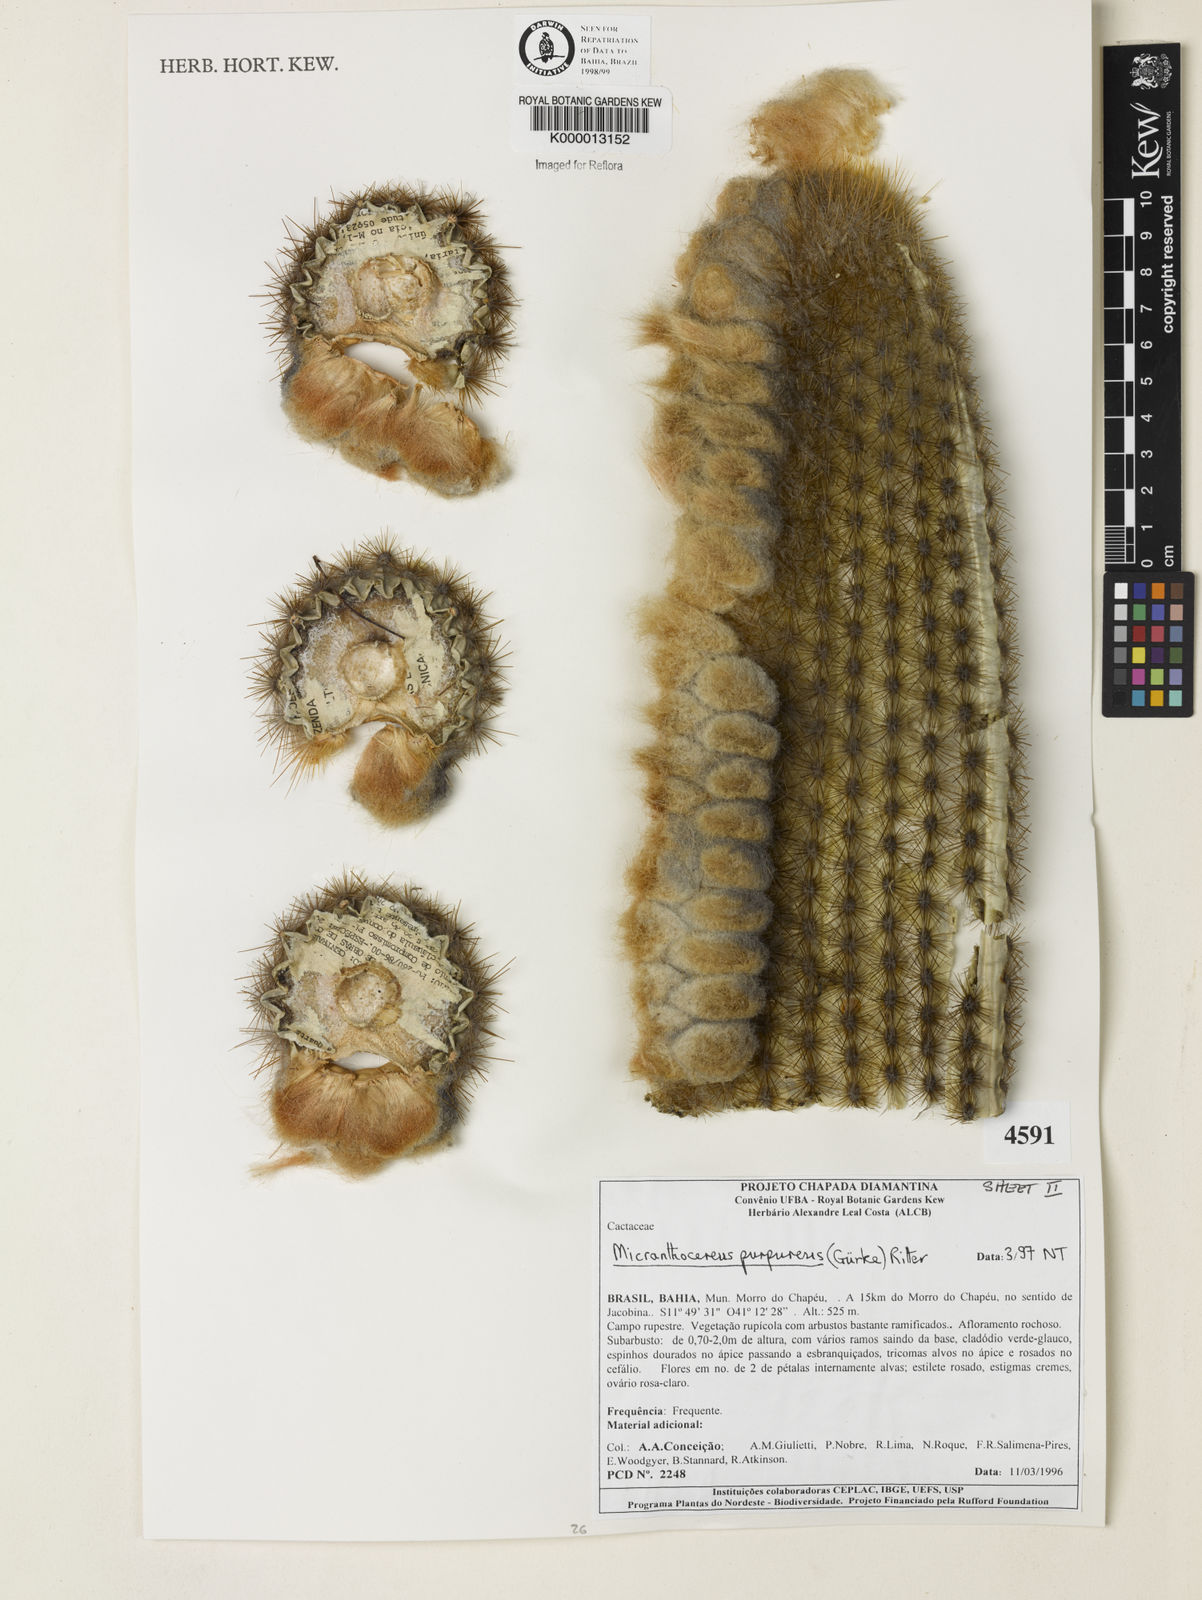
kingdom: Plantae
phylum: Tracheophyta
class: Magnoliopsida
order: Caryophyllales
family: Cactaceae
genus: Micranthocereus
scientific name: Micranthocereus purpureus
